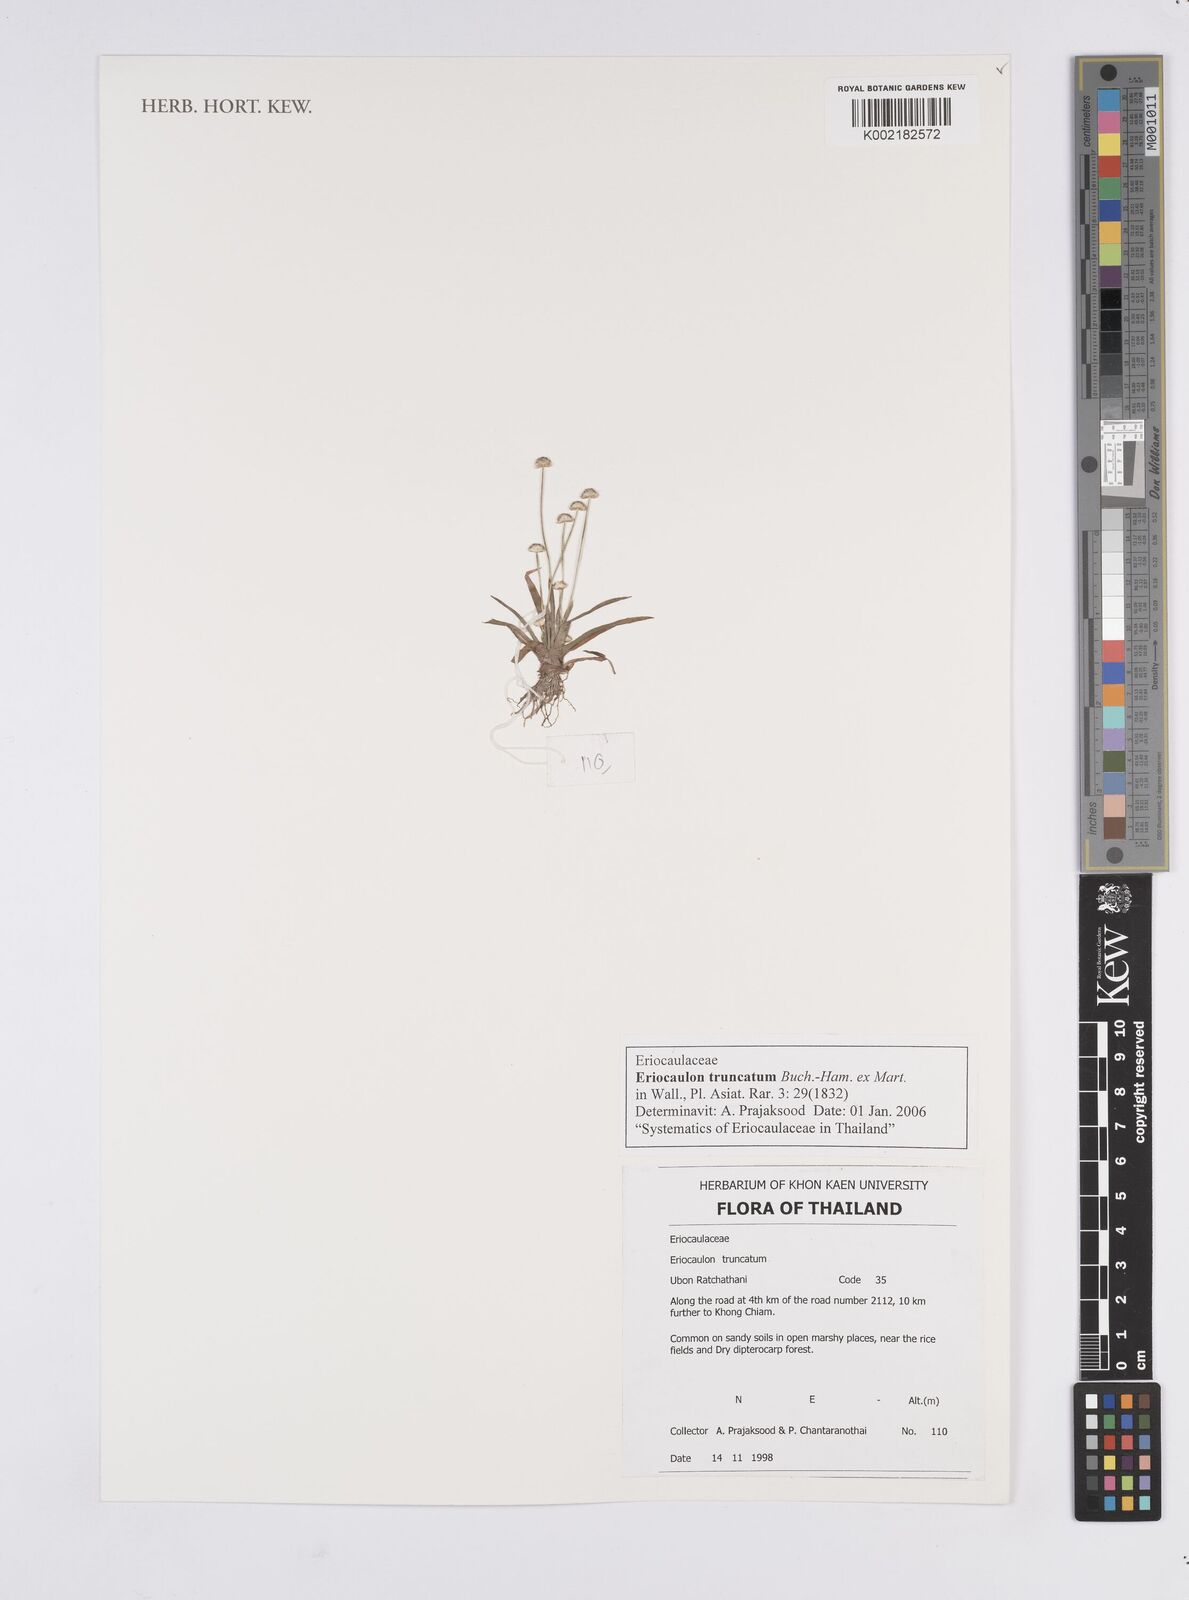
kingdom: Plantae
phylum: Tracheophyta
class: Liliopsida
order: Poales
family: Eriocaulaceae
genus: Eriocaulon
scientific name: Eriocaulon truncatum
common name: Short pipe-wort
